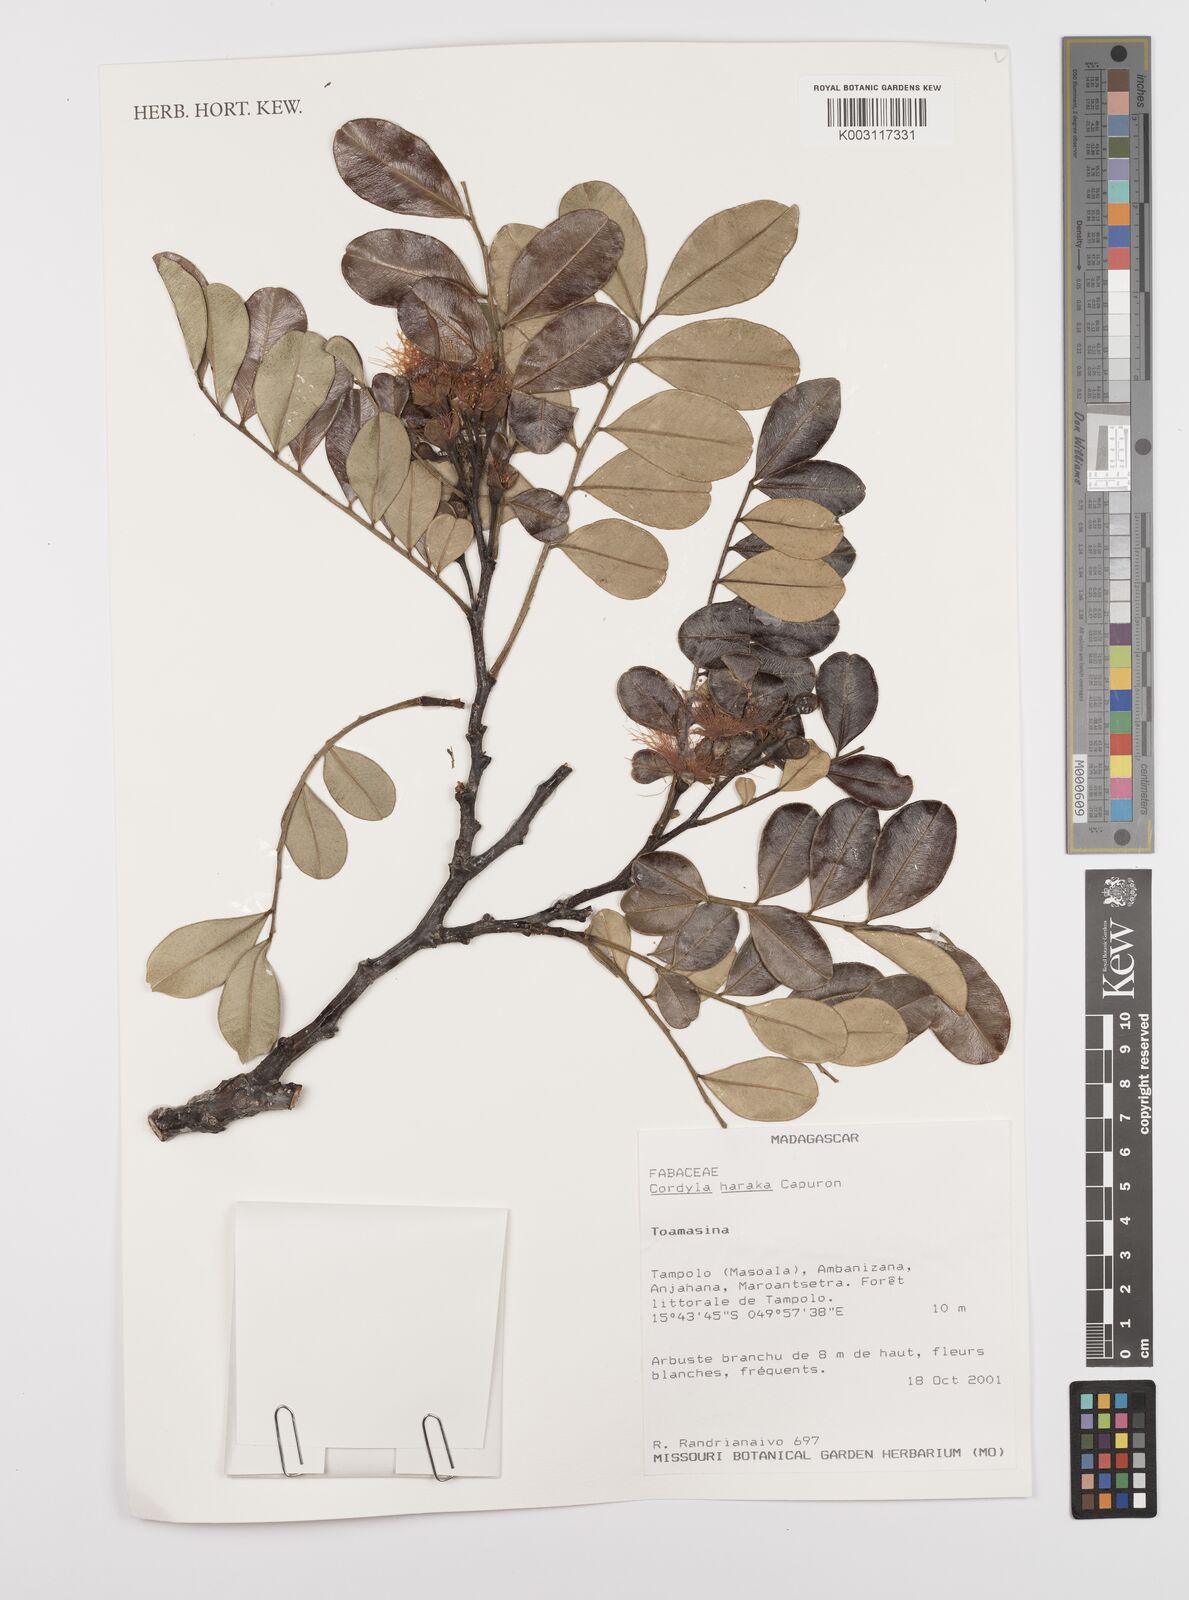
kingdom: Plantae
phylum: Tracheophyta
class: Magnoliopsida
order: Fabales
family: Fabaceae
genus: Cordyla
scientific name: Cordyla haraka
